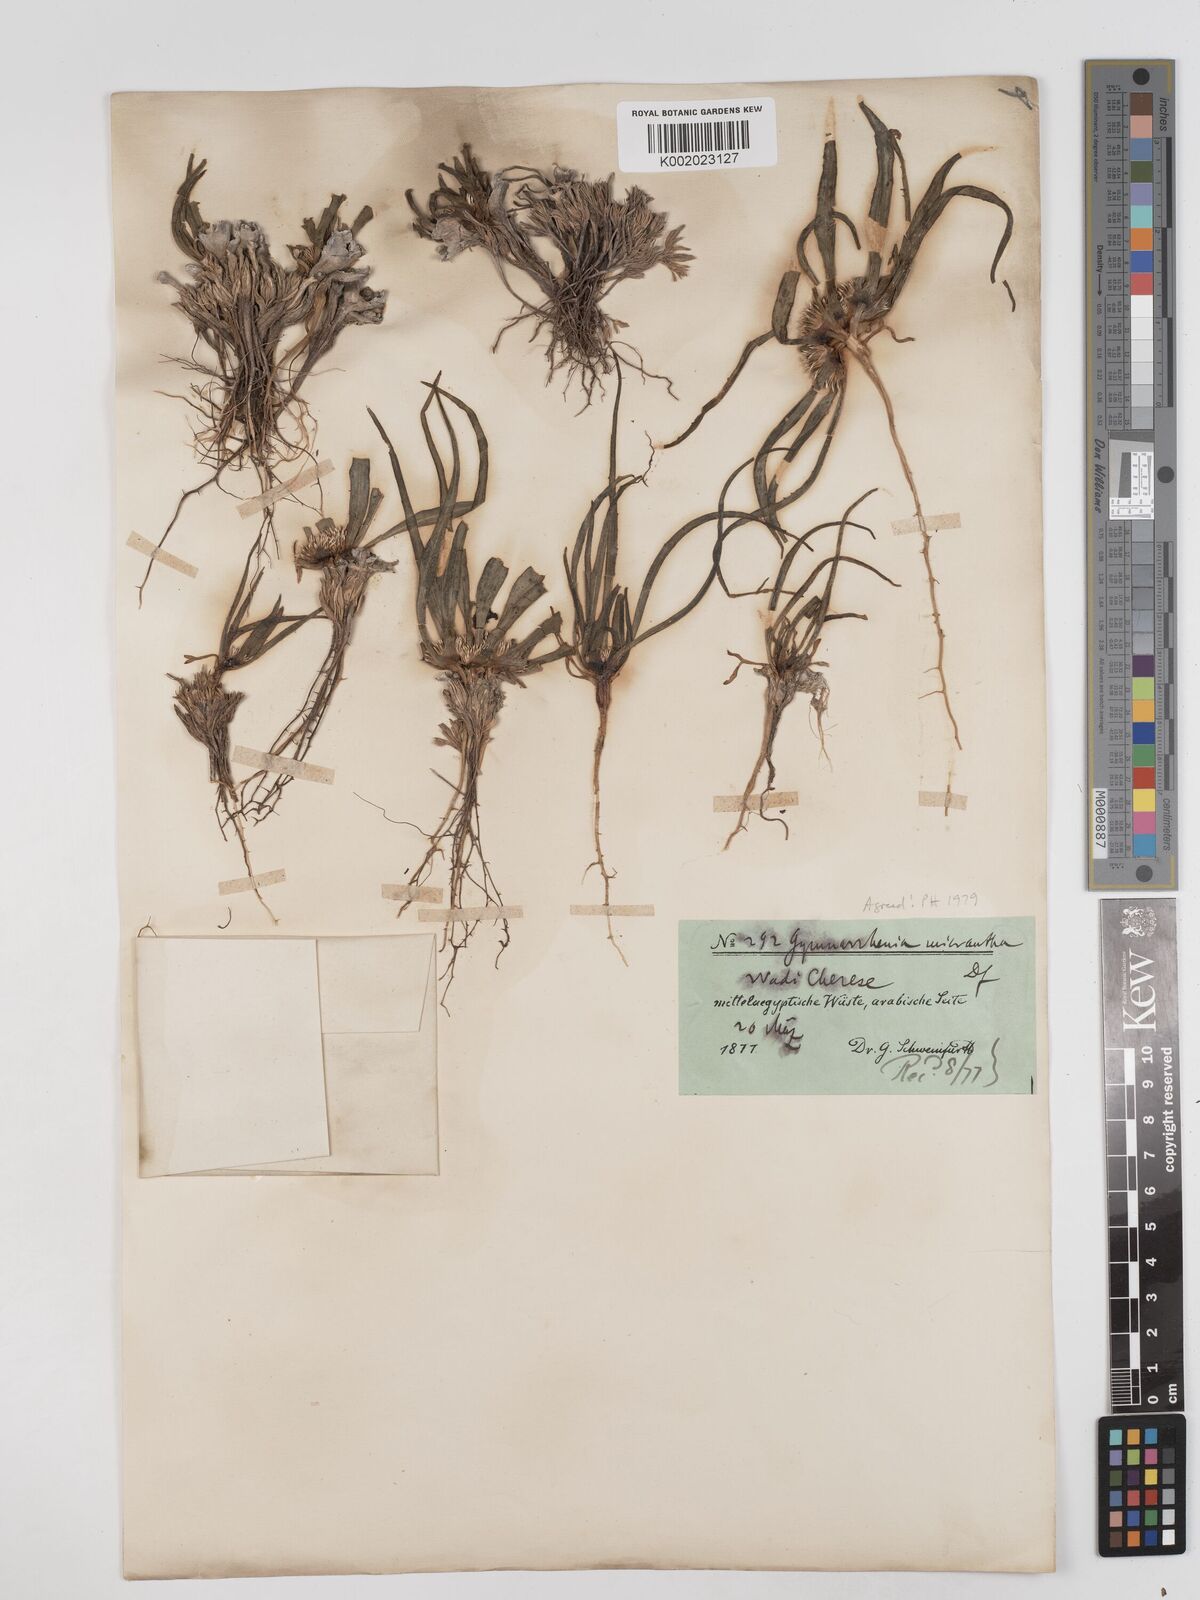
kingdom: Plantae
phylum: Tracheophyta
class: Magnoliopsida
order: Asterales
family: Asteraceae
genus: Gymnarrhena
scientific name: Gymnarrhena micrantha
